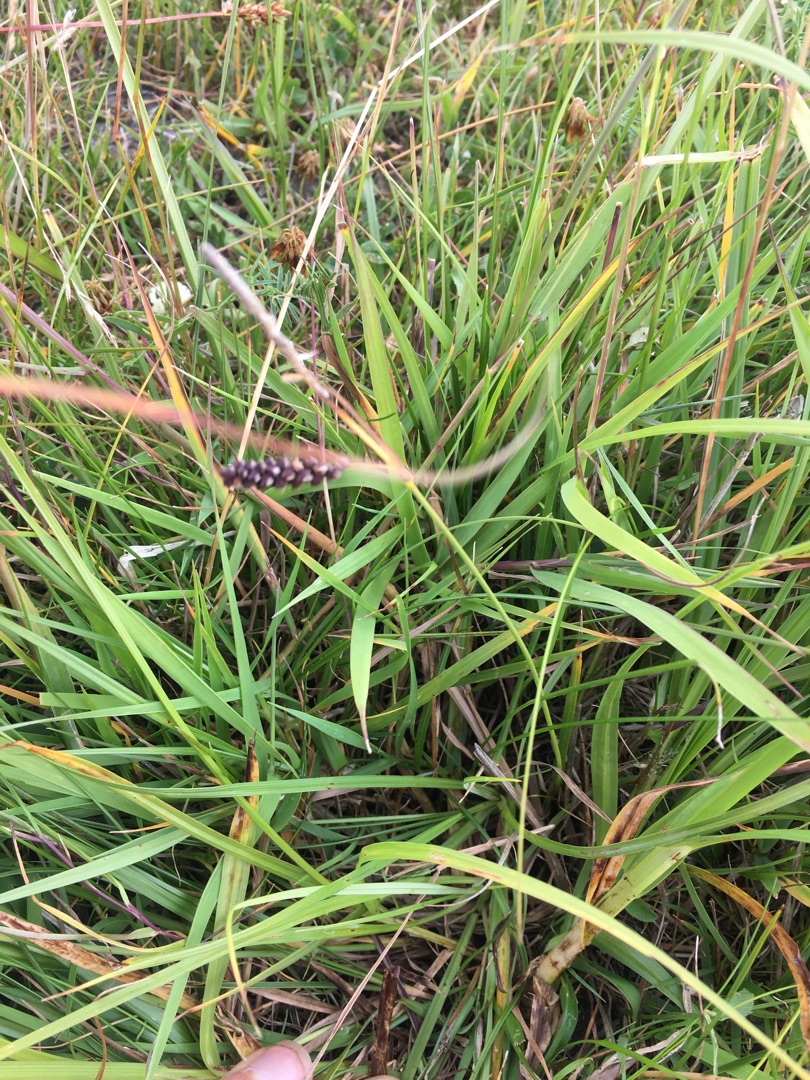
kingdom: Plantae
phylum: Tracheophyta
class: Liliopsida
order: Poales
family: Cyperaceae
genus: Carex
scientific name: Carex flacca
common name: Blågrøn star
